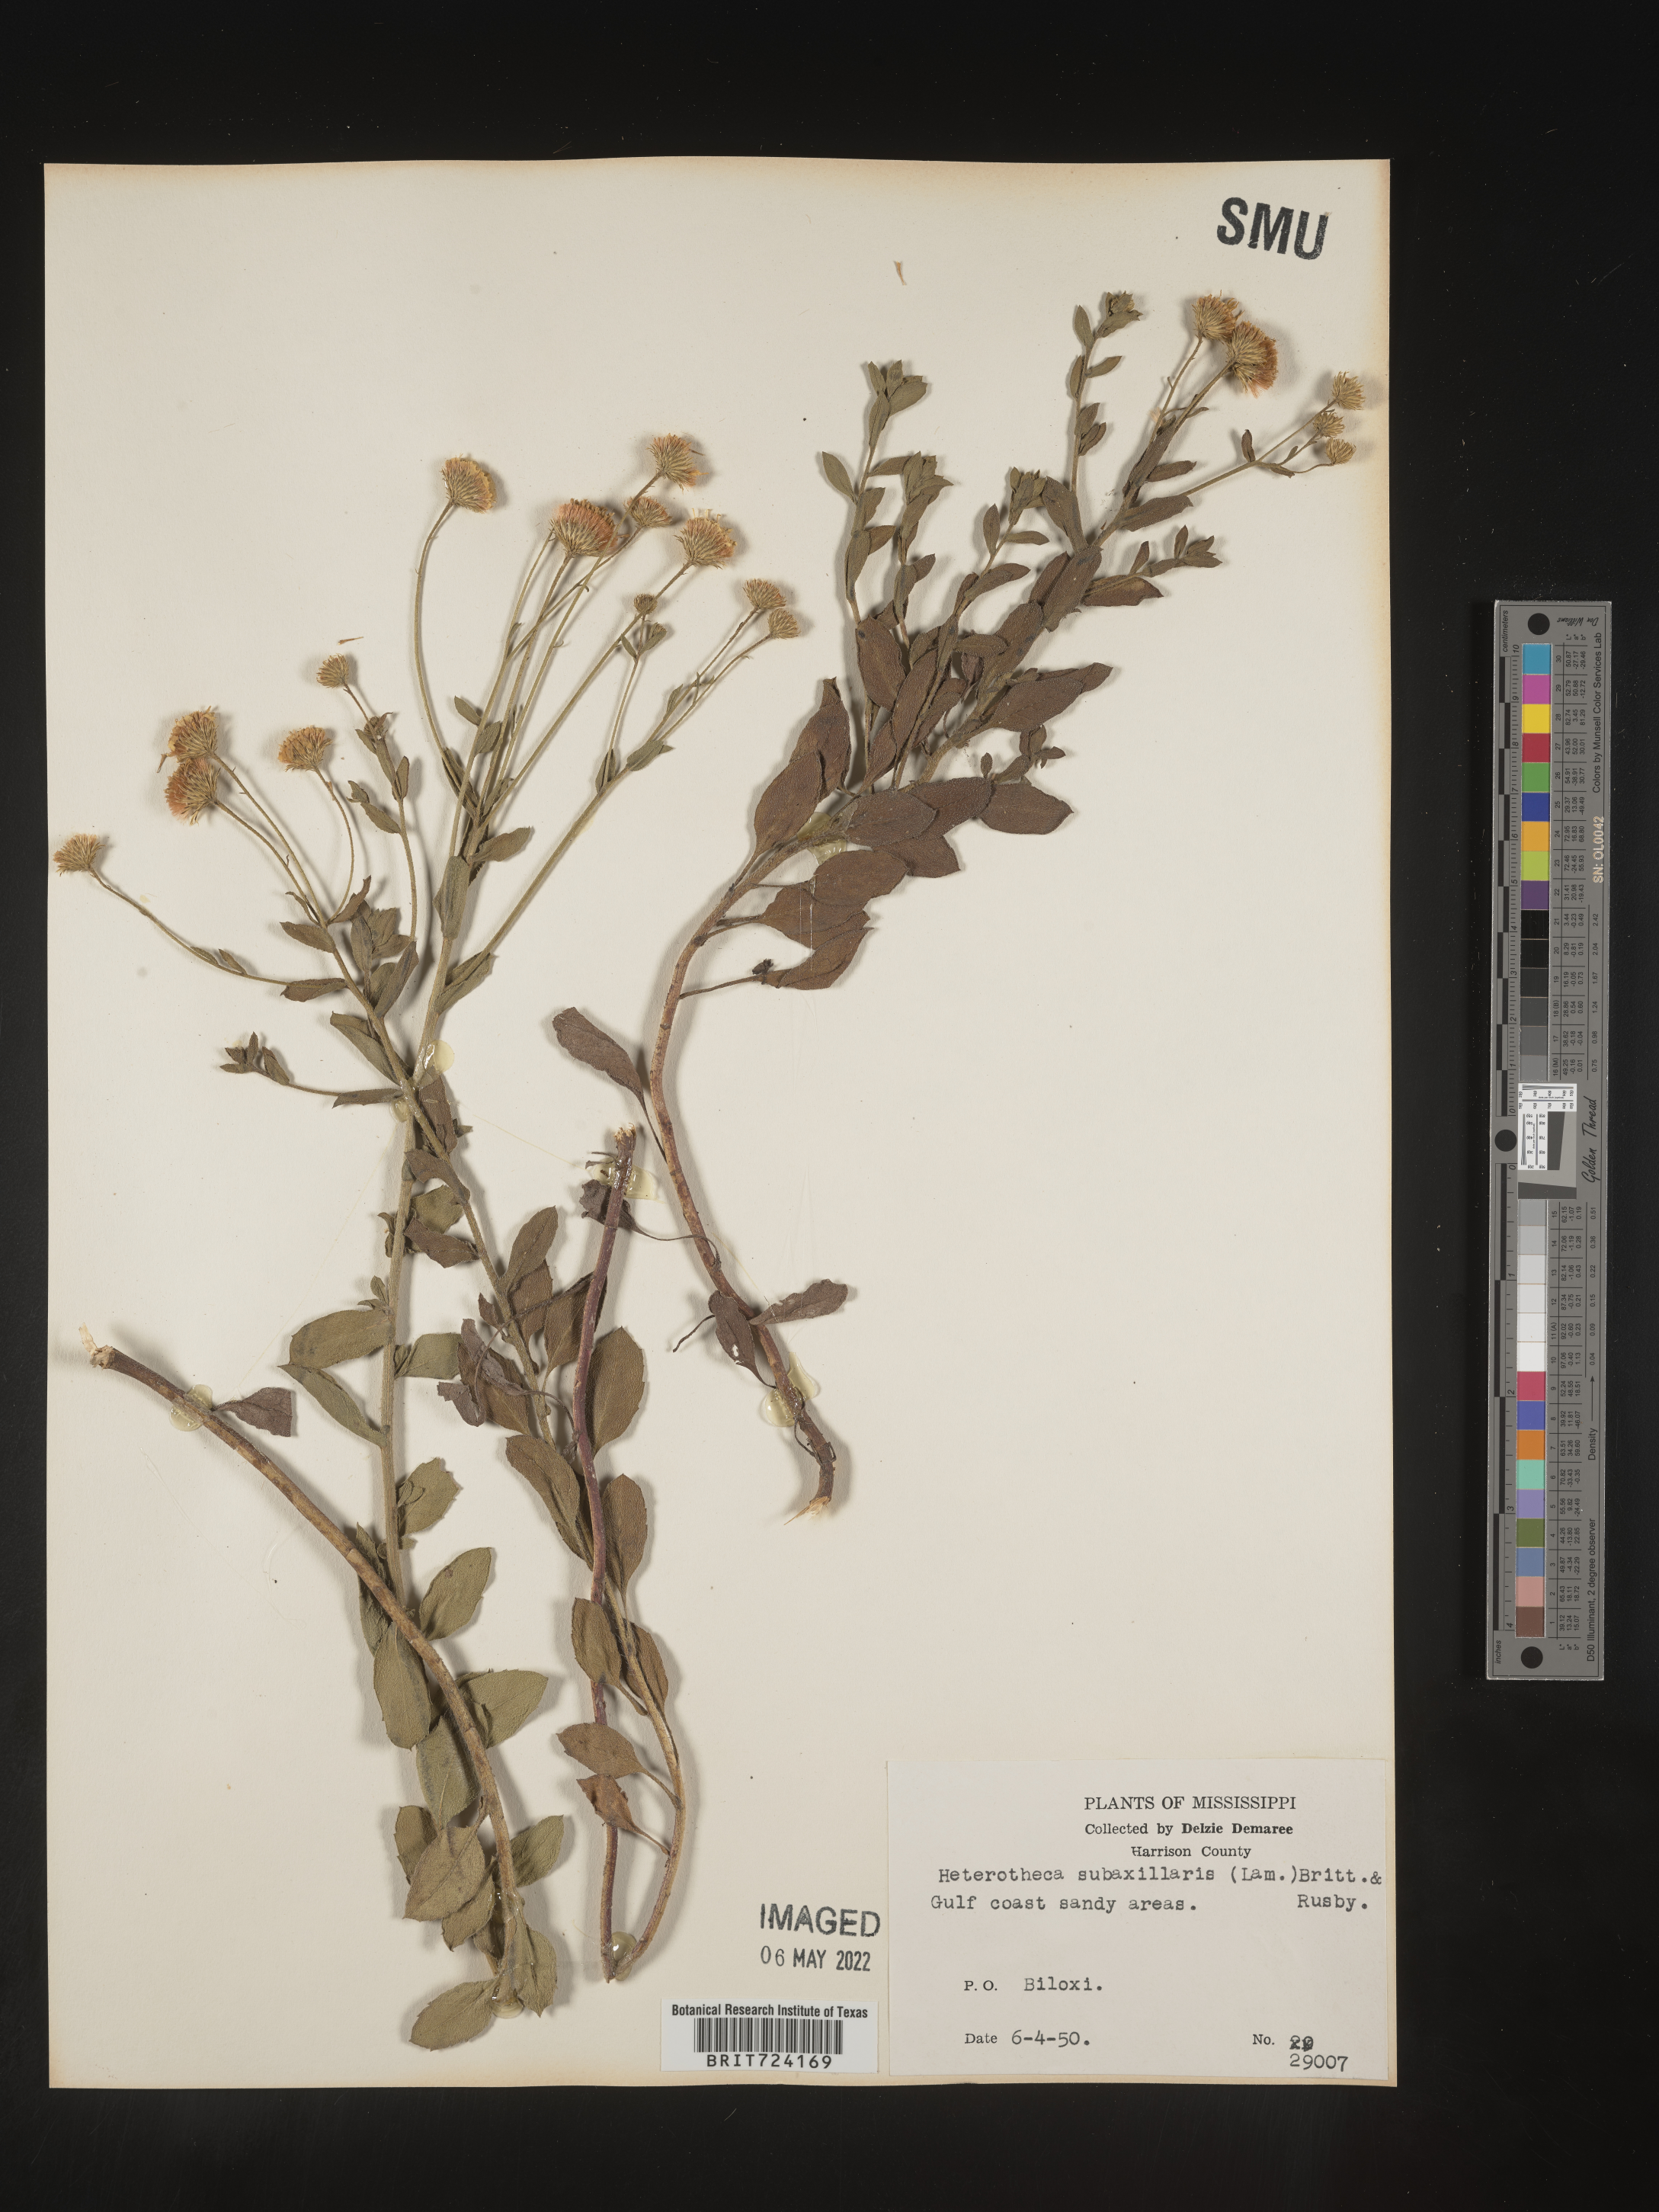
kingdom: Plantae
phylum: Tracheophyta
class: Magnoliopsida
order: Asterales
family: Asteraceae
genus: Heterotheca
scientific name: Heterotheca subaxillaris
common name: Camphorweed
